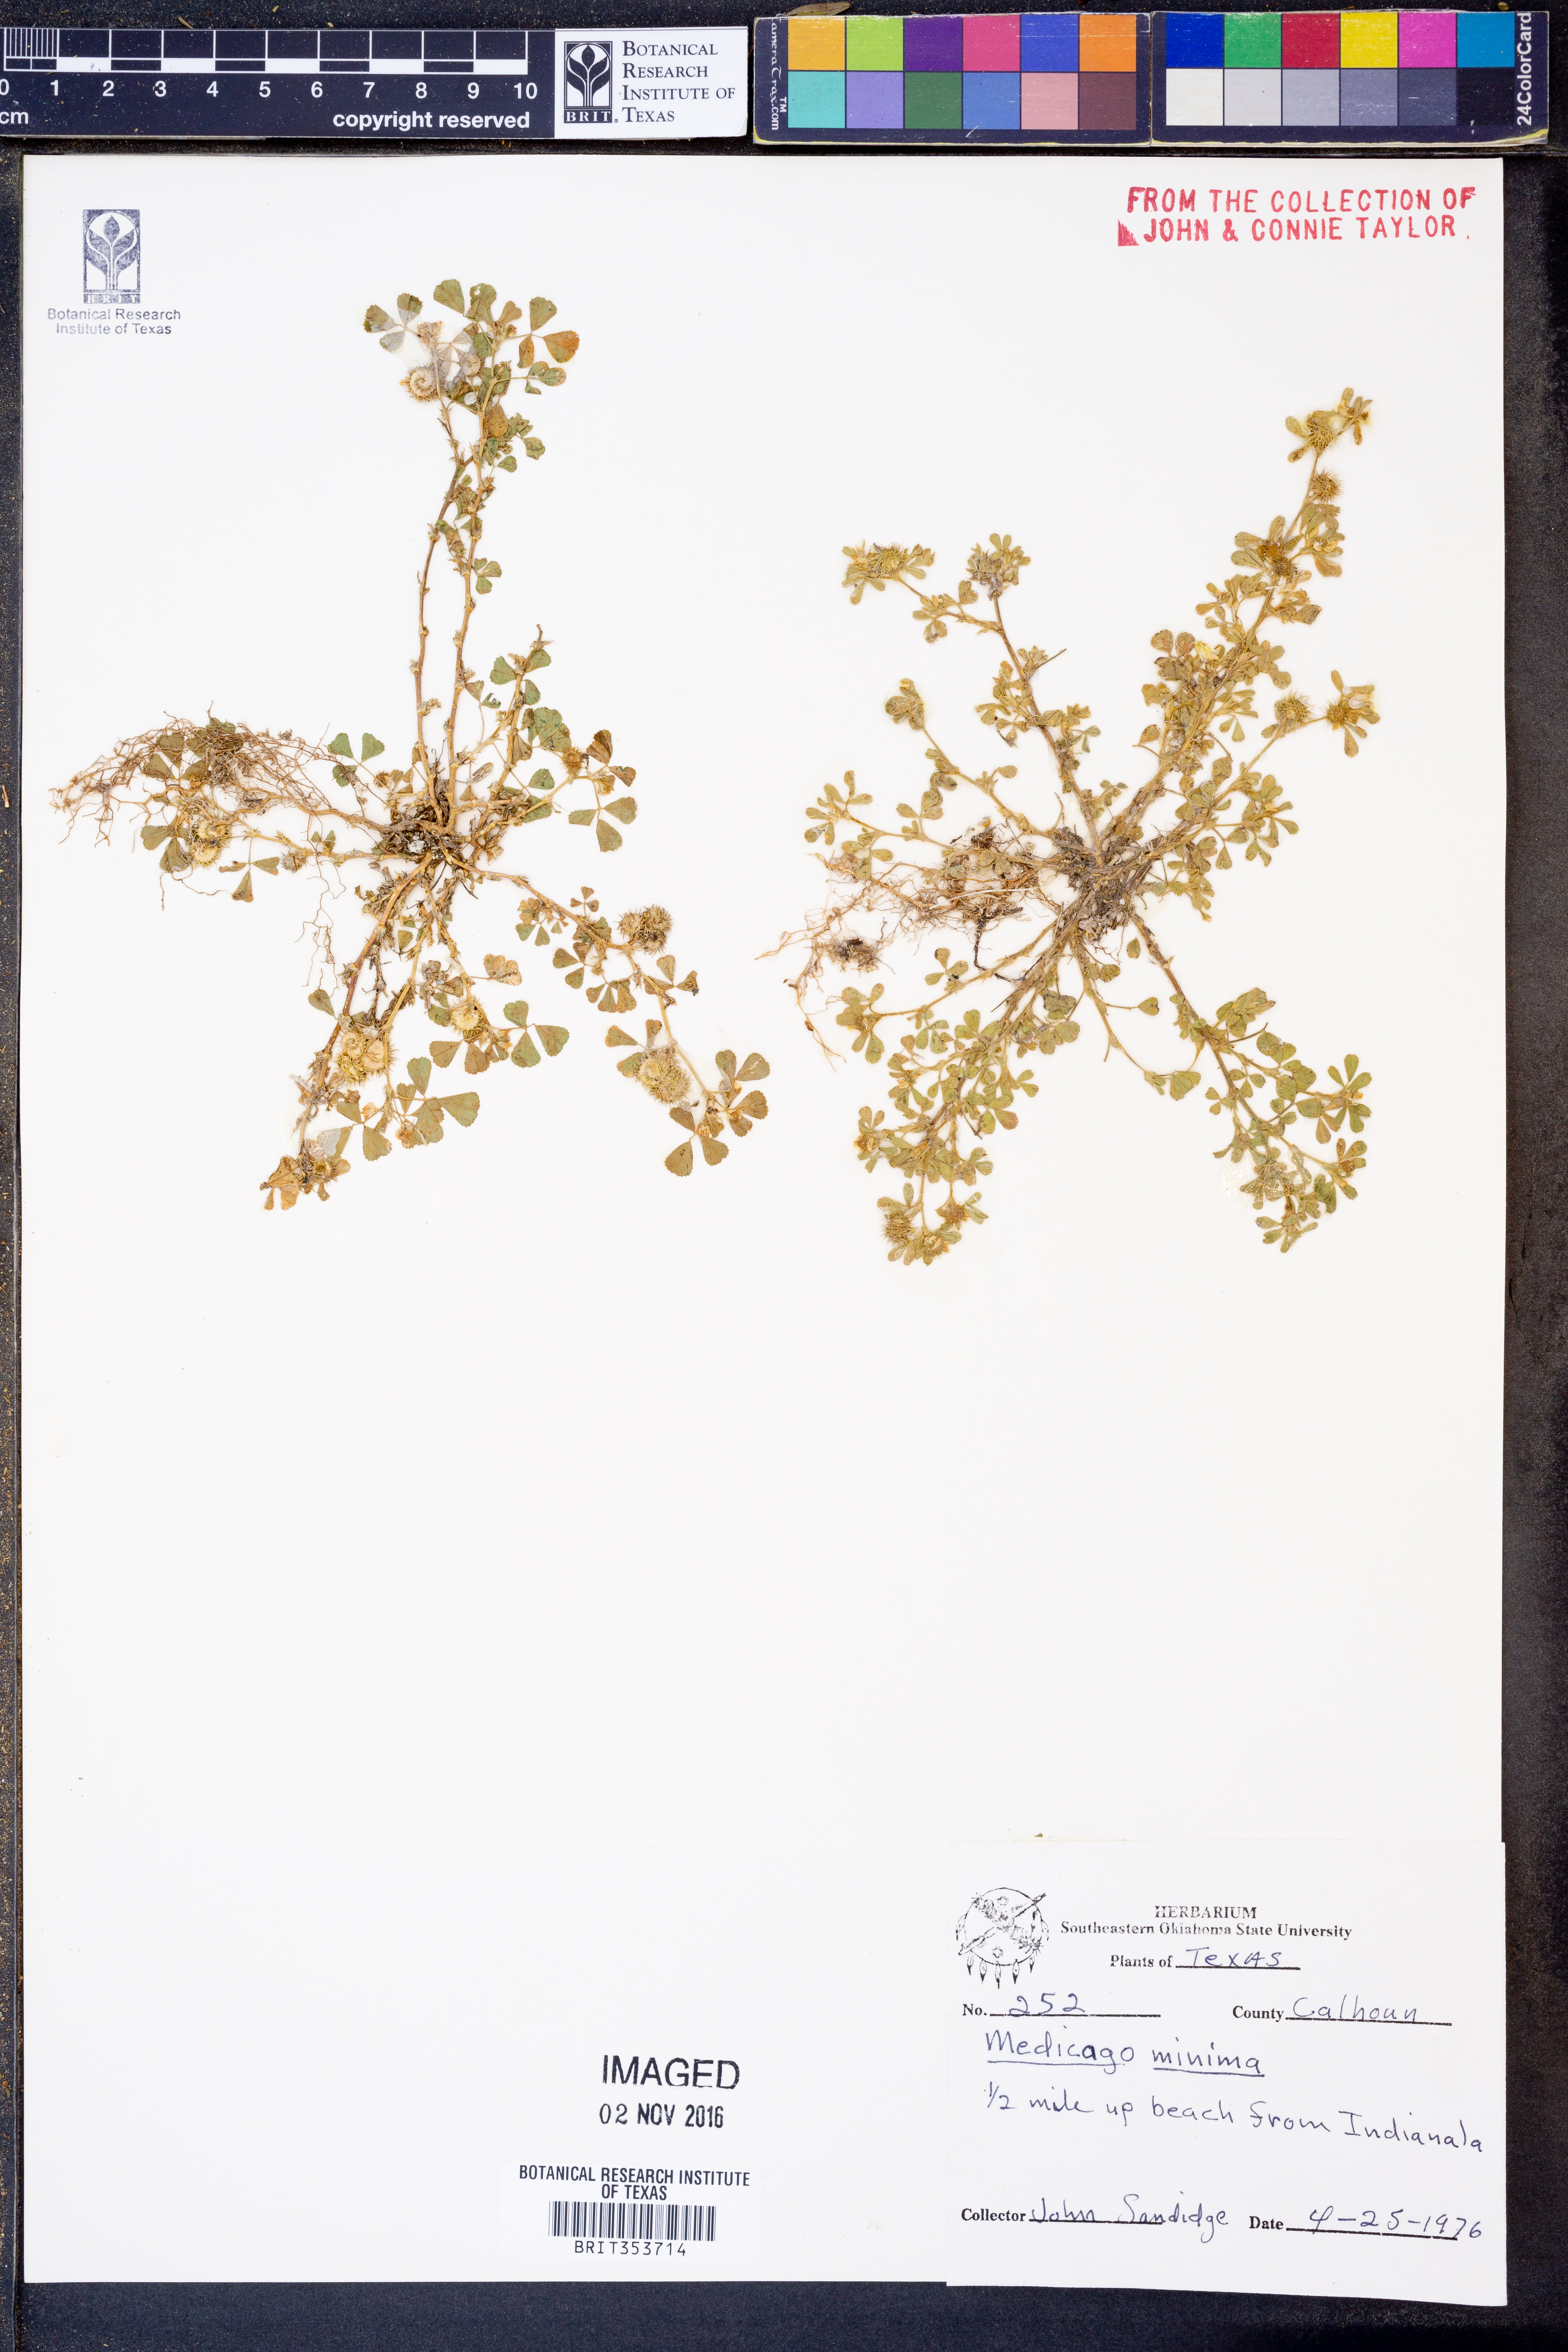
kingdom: Plantae
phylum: Tracheophyta
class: Magnoliopsida
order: Fabales
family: Fabaceae
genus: Medicago
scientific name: Medicago minima
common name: Little bur-clover
